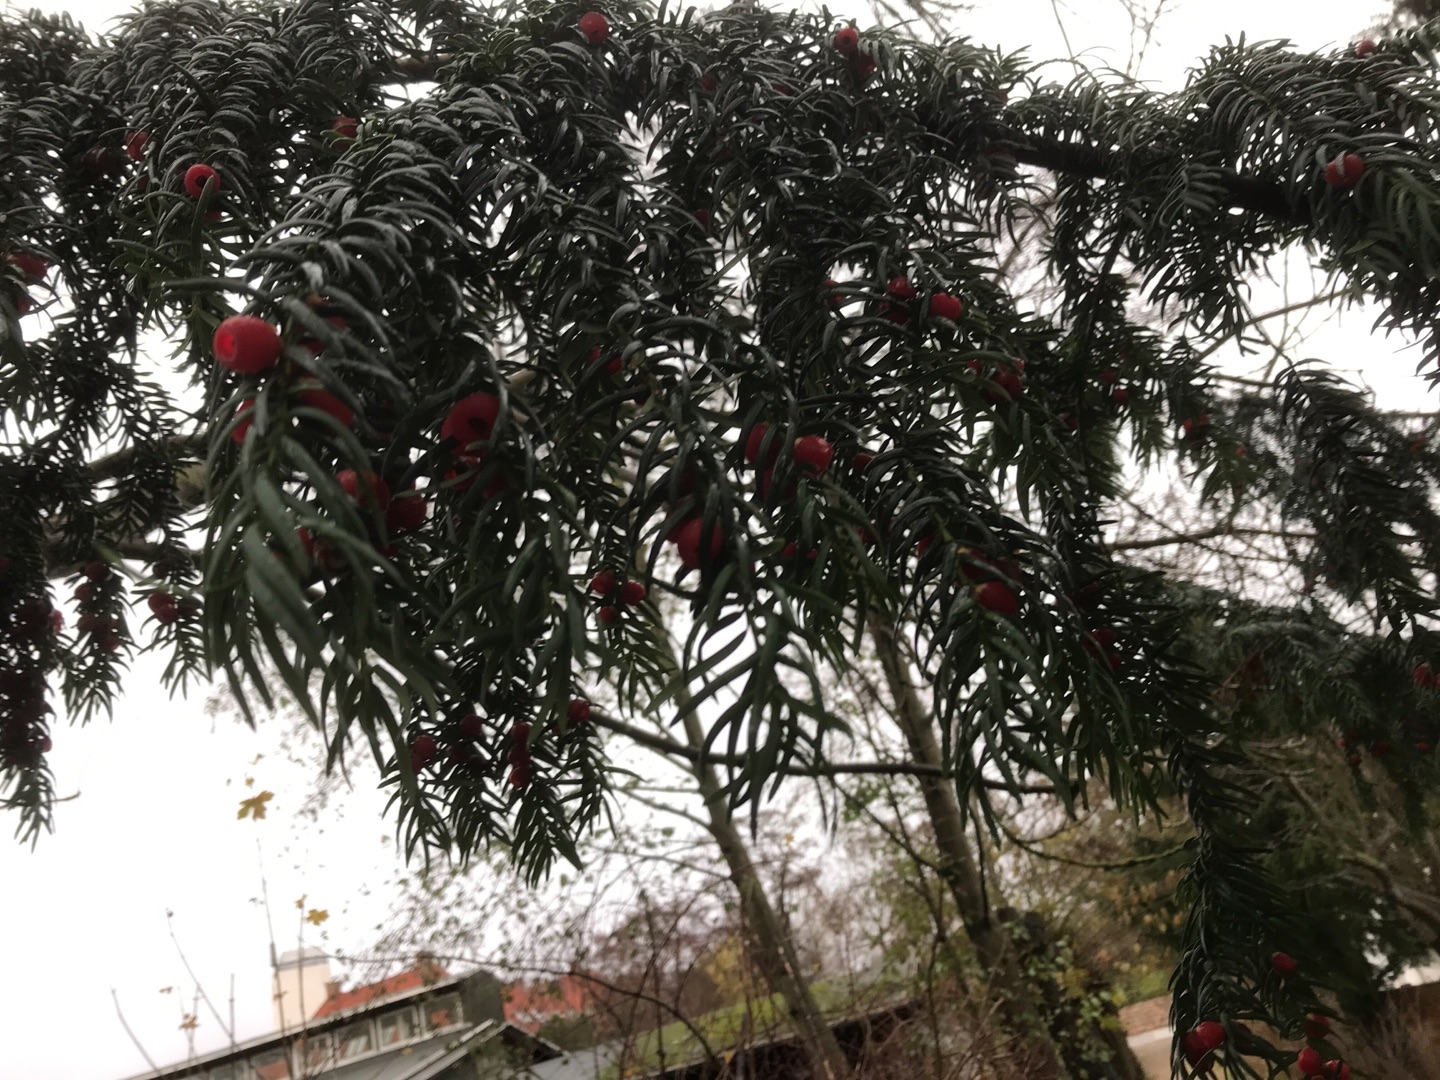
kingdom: Plantae
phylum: Tracheophyta
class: Pinopsida
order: Pinales
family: Taxaceae
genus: Taxus
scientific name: Taxus baccata
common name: Almindelig taks
